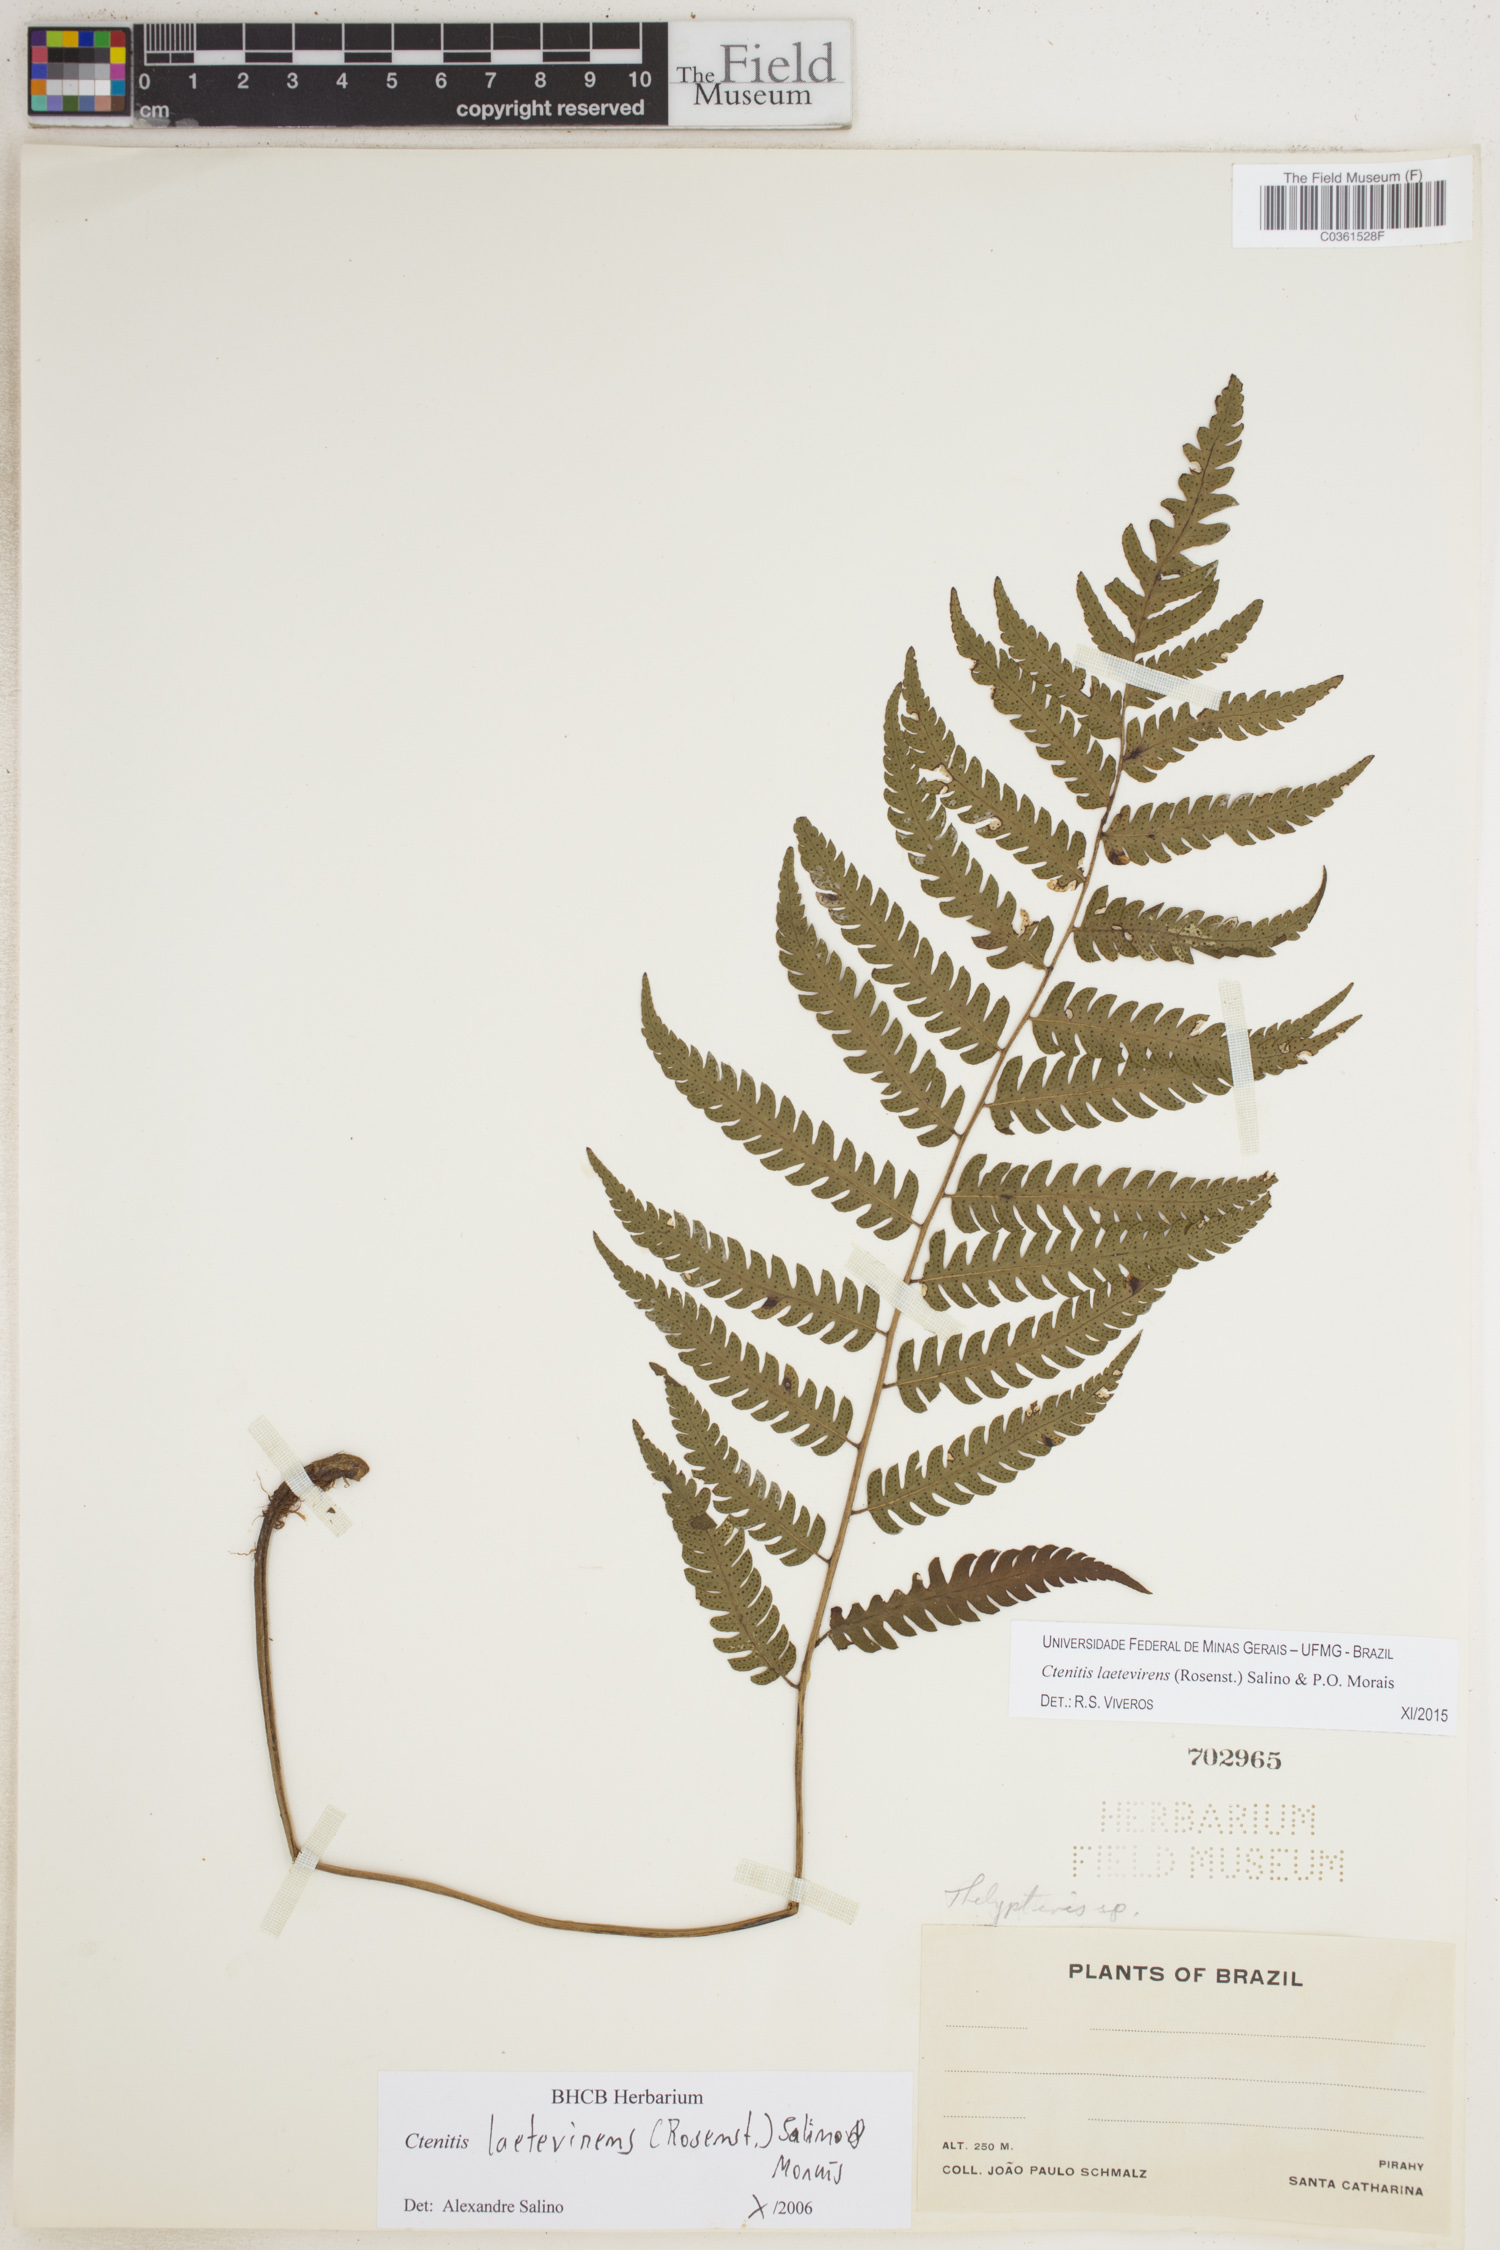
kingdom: Plantae
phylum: Tracheophyta
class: Polypodiopsida
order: Polypodiales
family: Dryopteridaceae
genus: Ctenitis
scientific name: Ctenitis laetevirens
